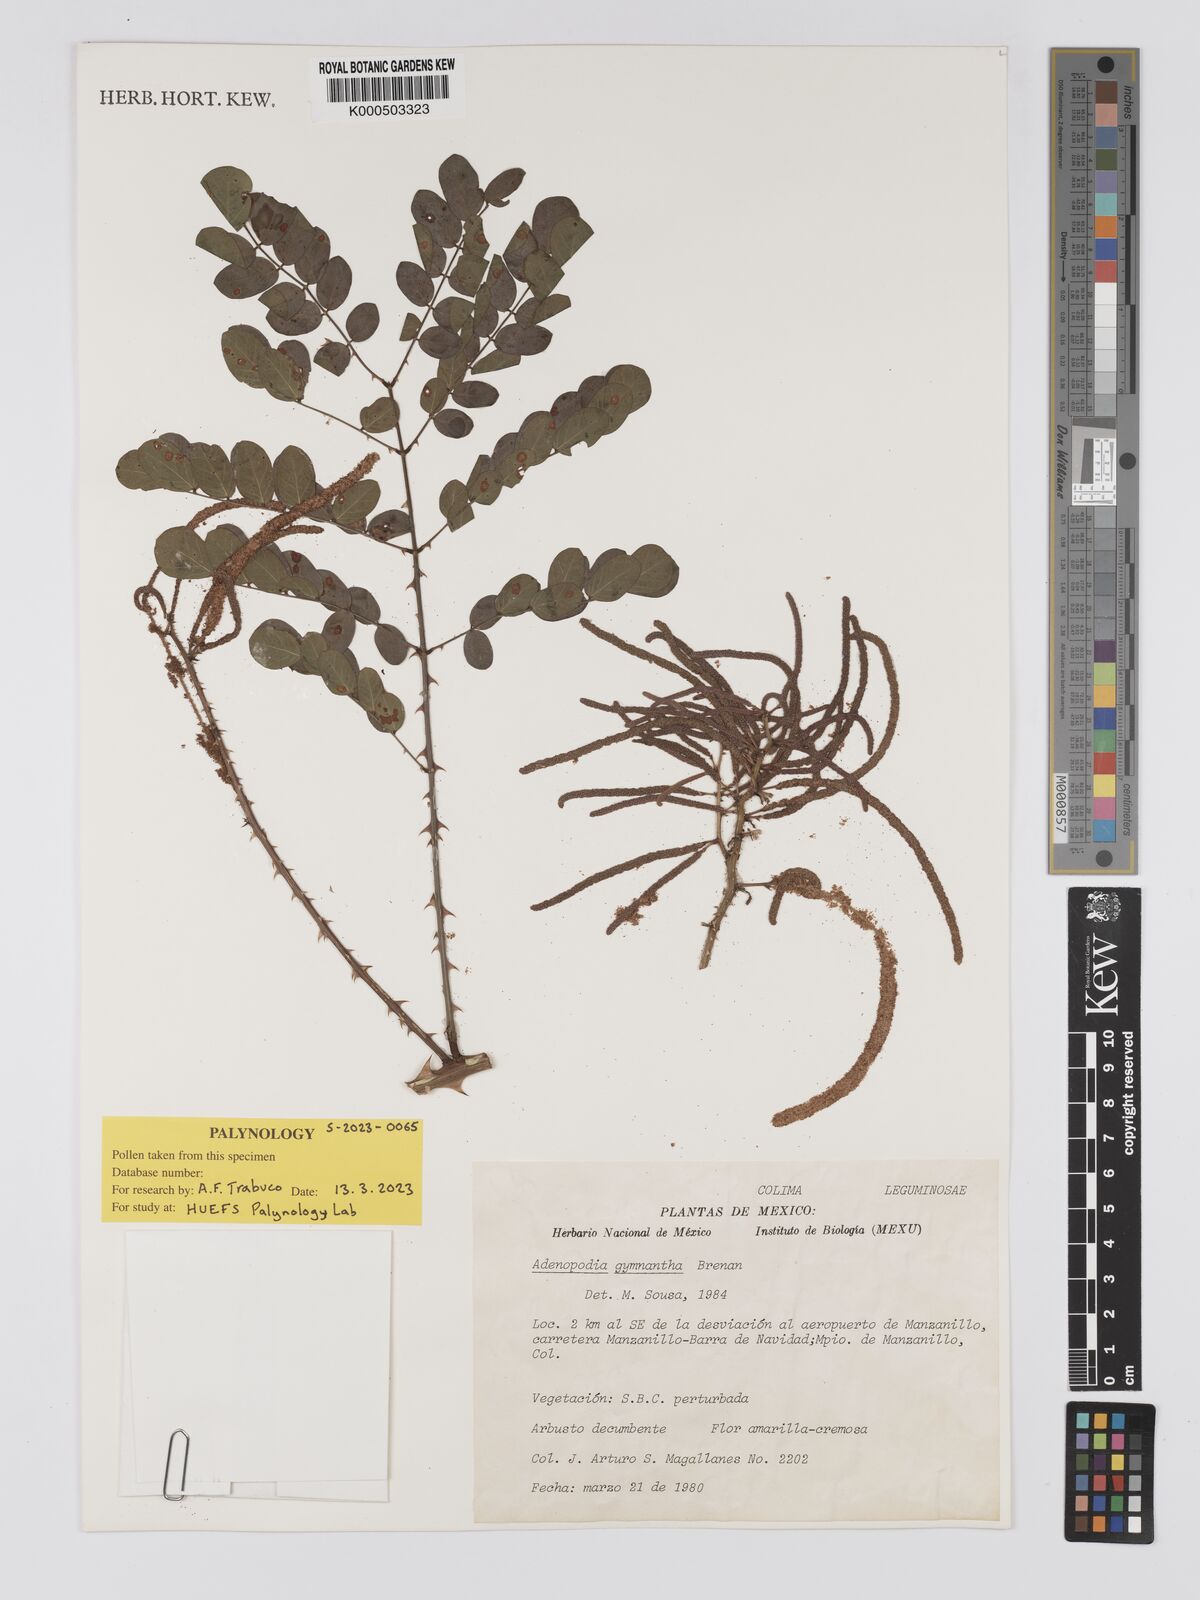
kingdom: Plantae
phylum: Tracheophyta
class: Magnoliopsida
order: Fabales
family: Fabaceae
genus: Adenopodia
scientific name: Adenopodia gymnantha
